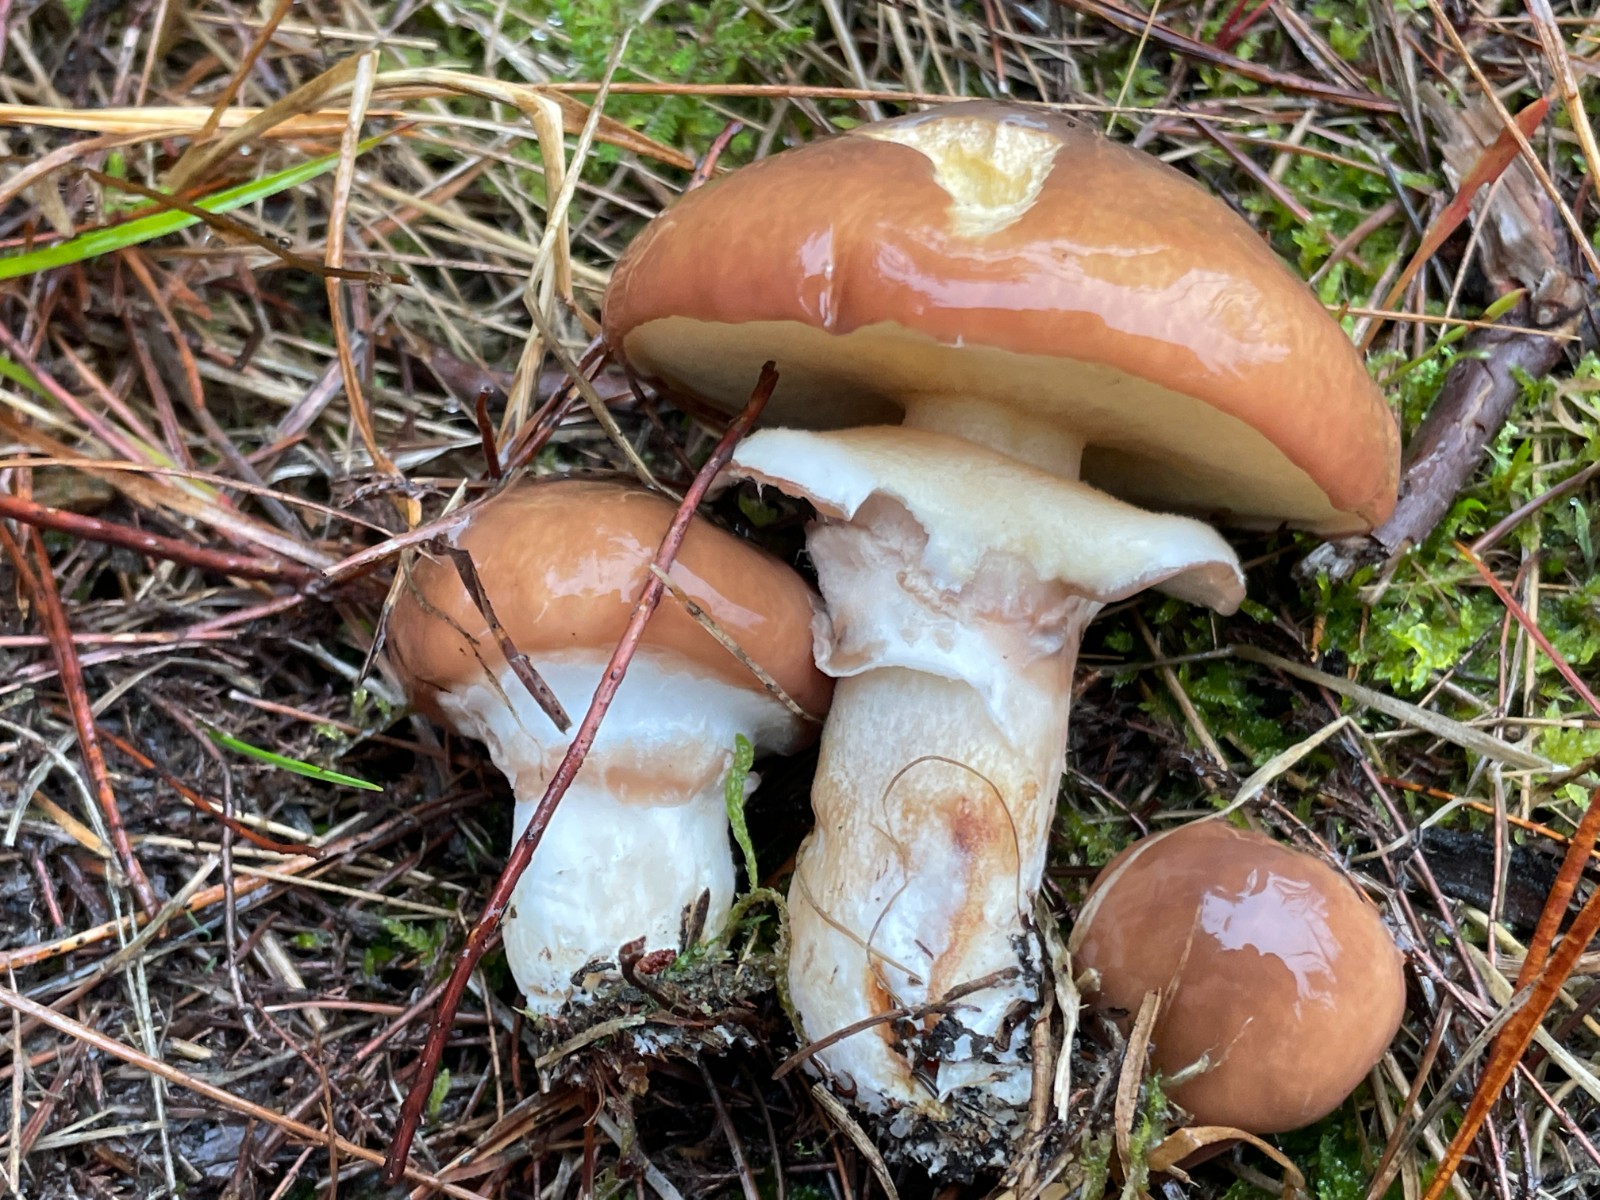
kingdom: Fungi
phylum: Basidiomycota
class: Agaricomycetes
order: Boletales
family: Suillaceae
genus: Suillus
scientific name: Suillus luteus
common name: brungul slimrørhat
